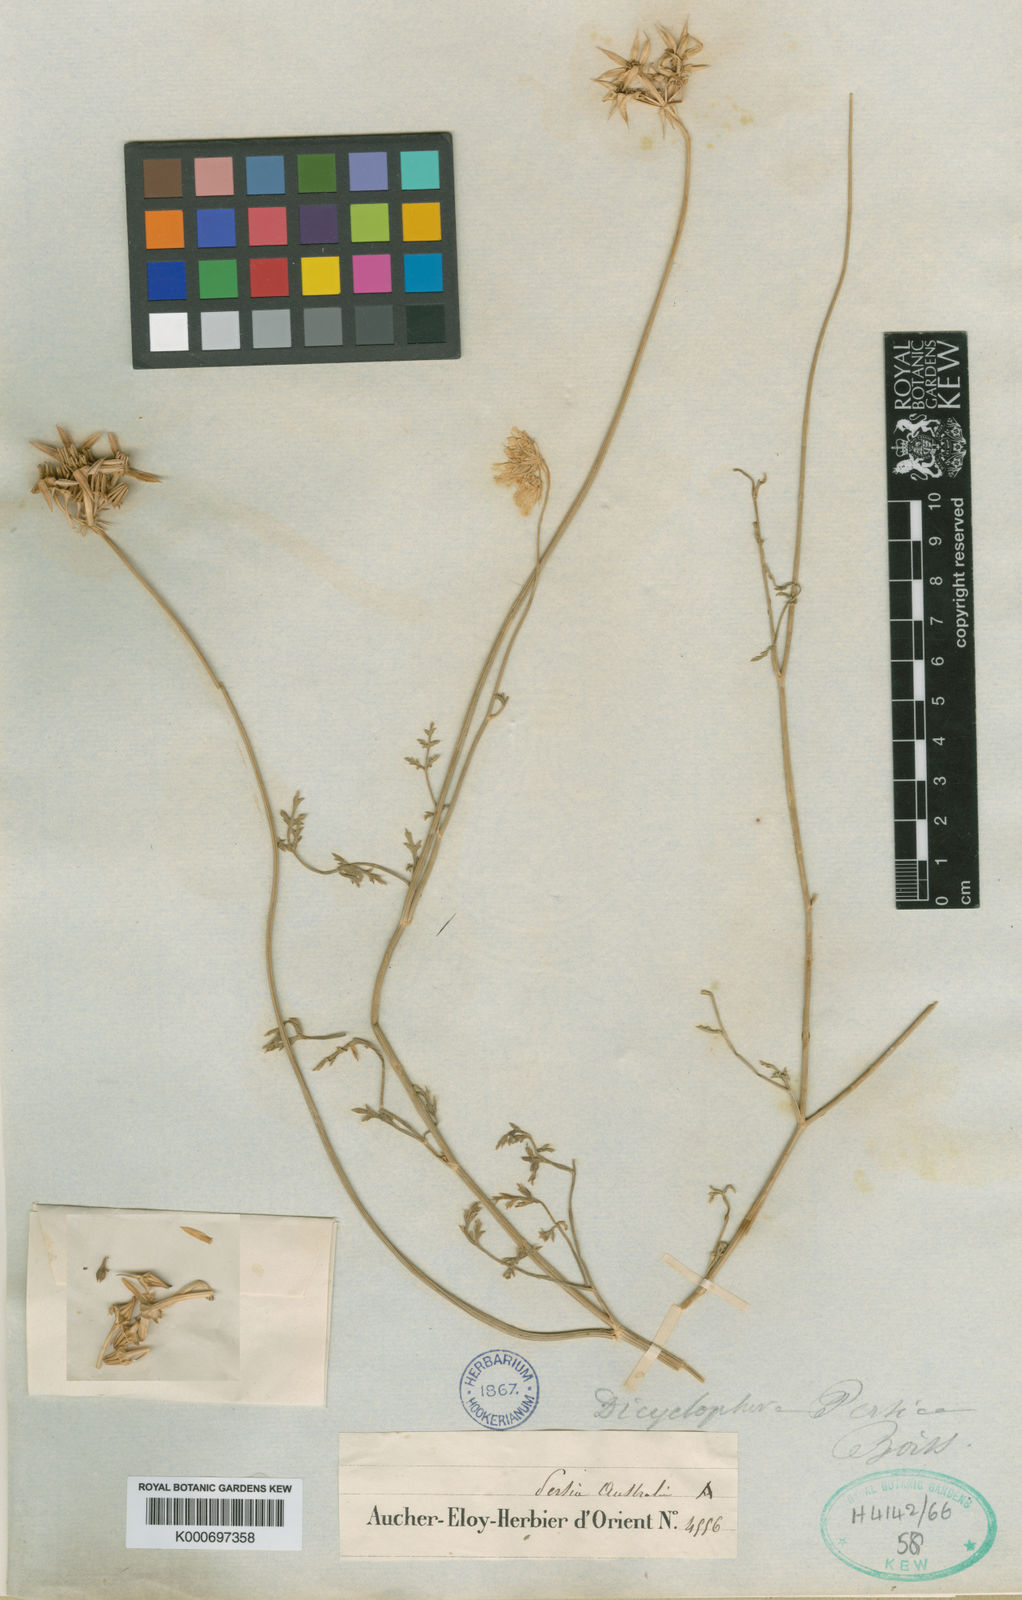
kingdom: Plantae
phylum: Tracheophyta
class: Magnoliopsida
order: Apiales
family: Apiaceae
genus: Dicyclophora
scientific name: Dicyclophora persica
